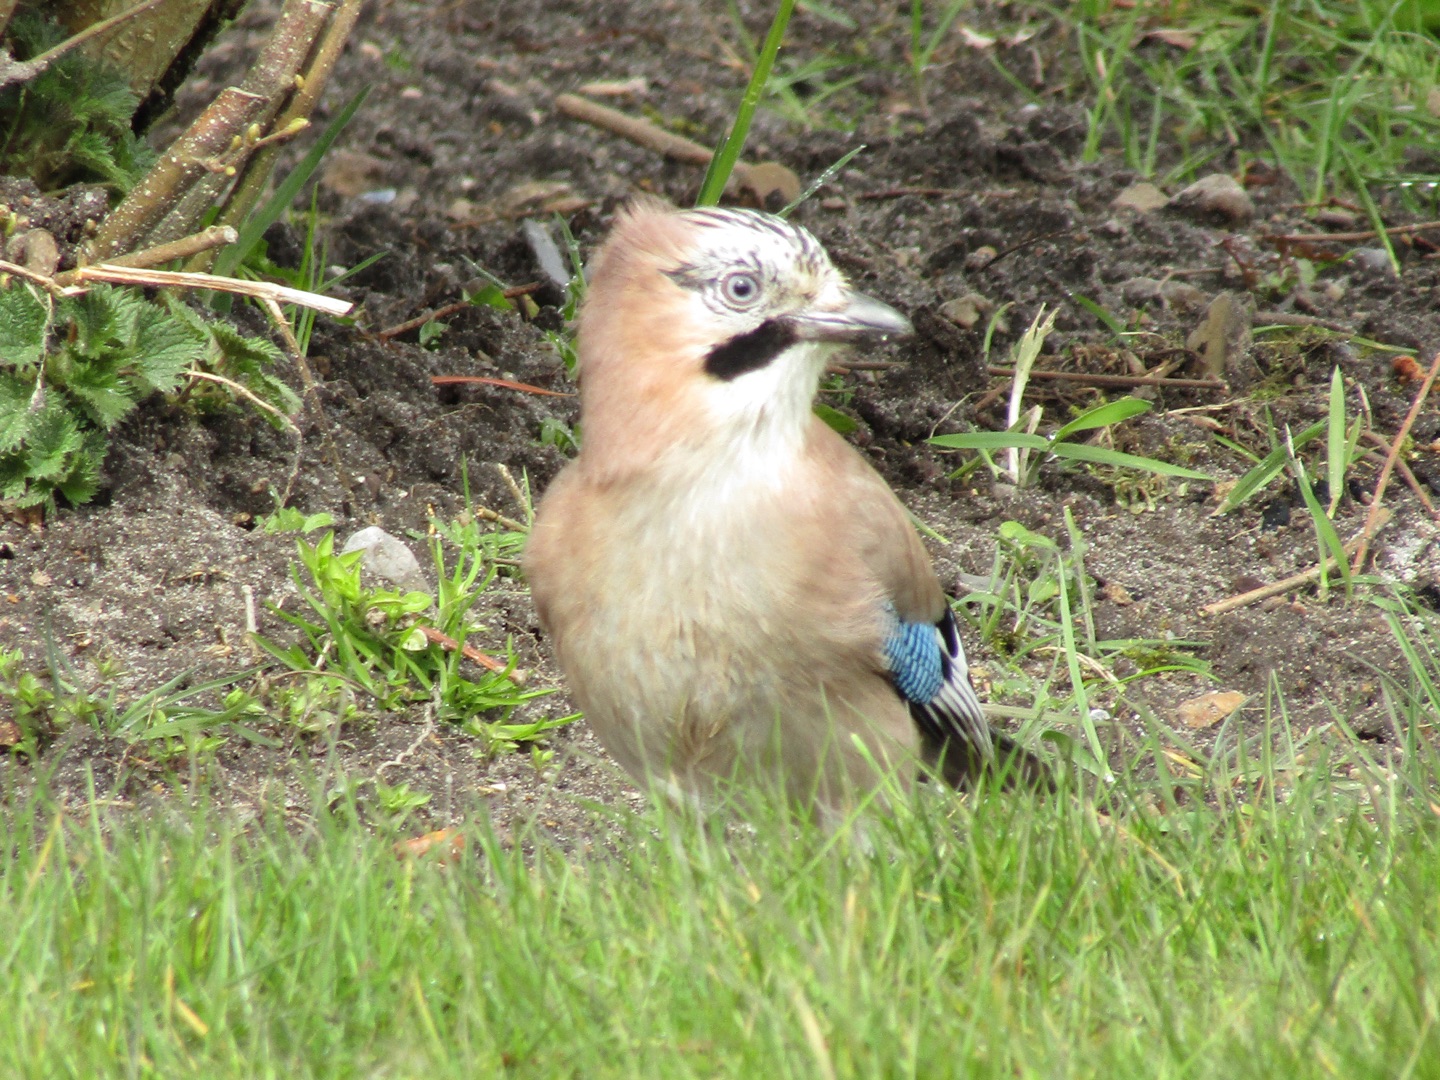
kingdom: Animalia
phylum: Chordata
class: Aves
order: Passeriformes
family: Corvidae
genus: Garrulus
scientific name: Garrulus glandarius
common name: Skovskade
